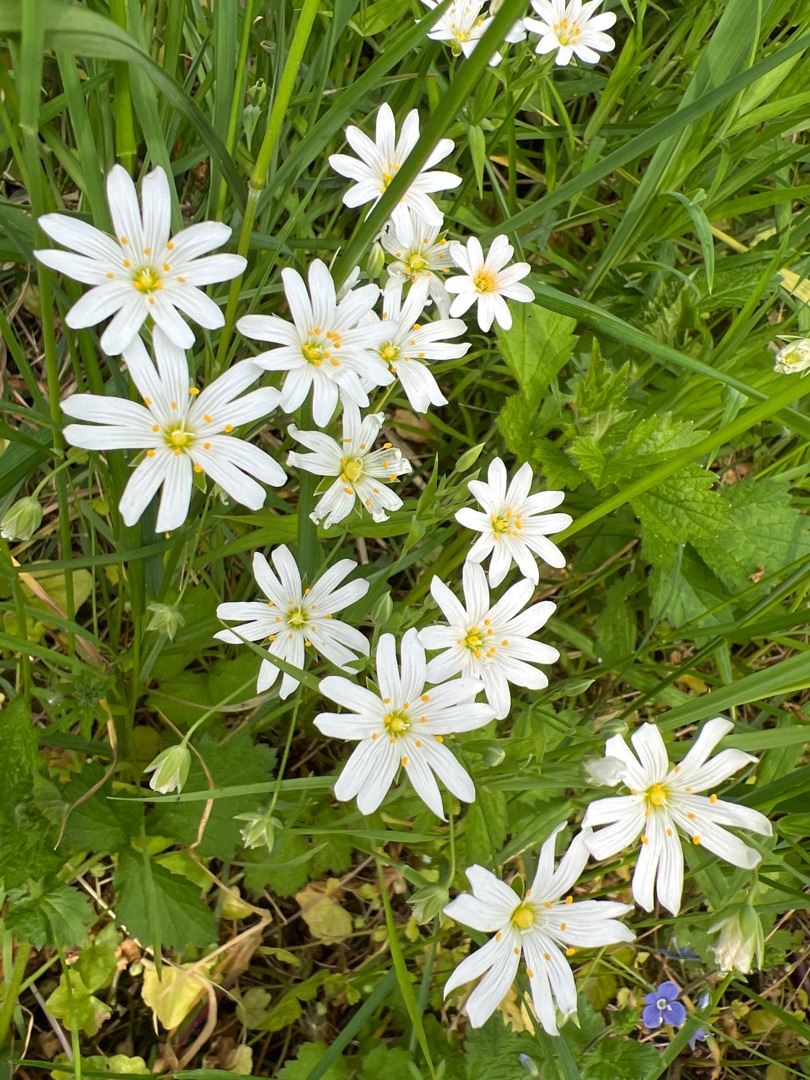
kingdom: Plantae
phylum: Tracheophyta
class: Magnoliopsida
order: Caryophyllales
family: Caryophyllaceae
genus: Rabelera
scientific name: Rabelera holostea
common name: Stor fladstjerne
